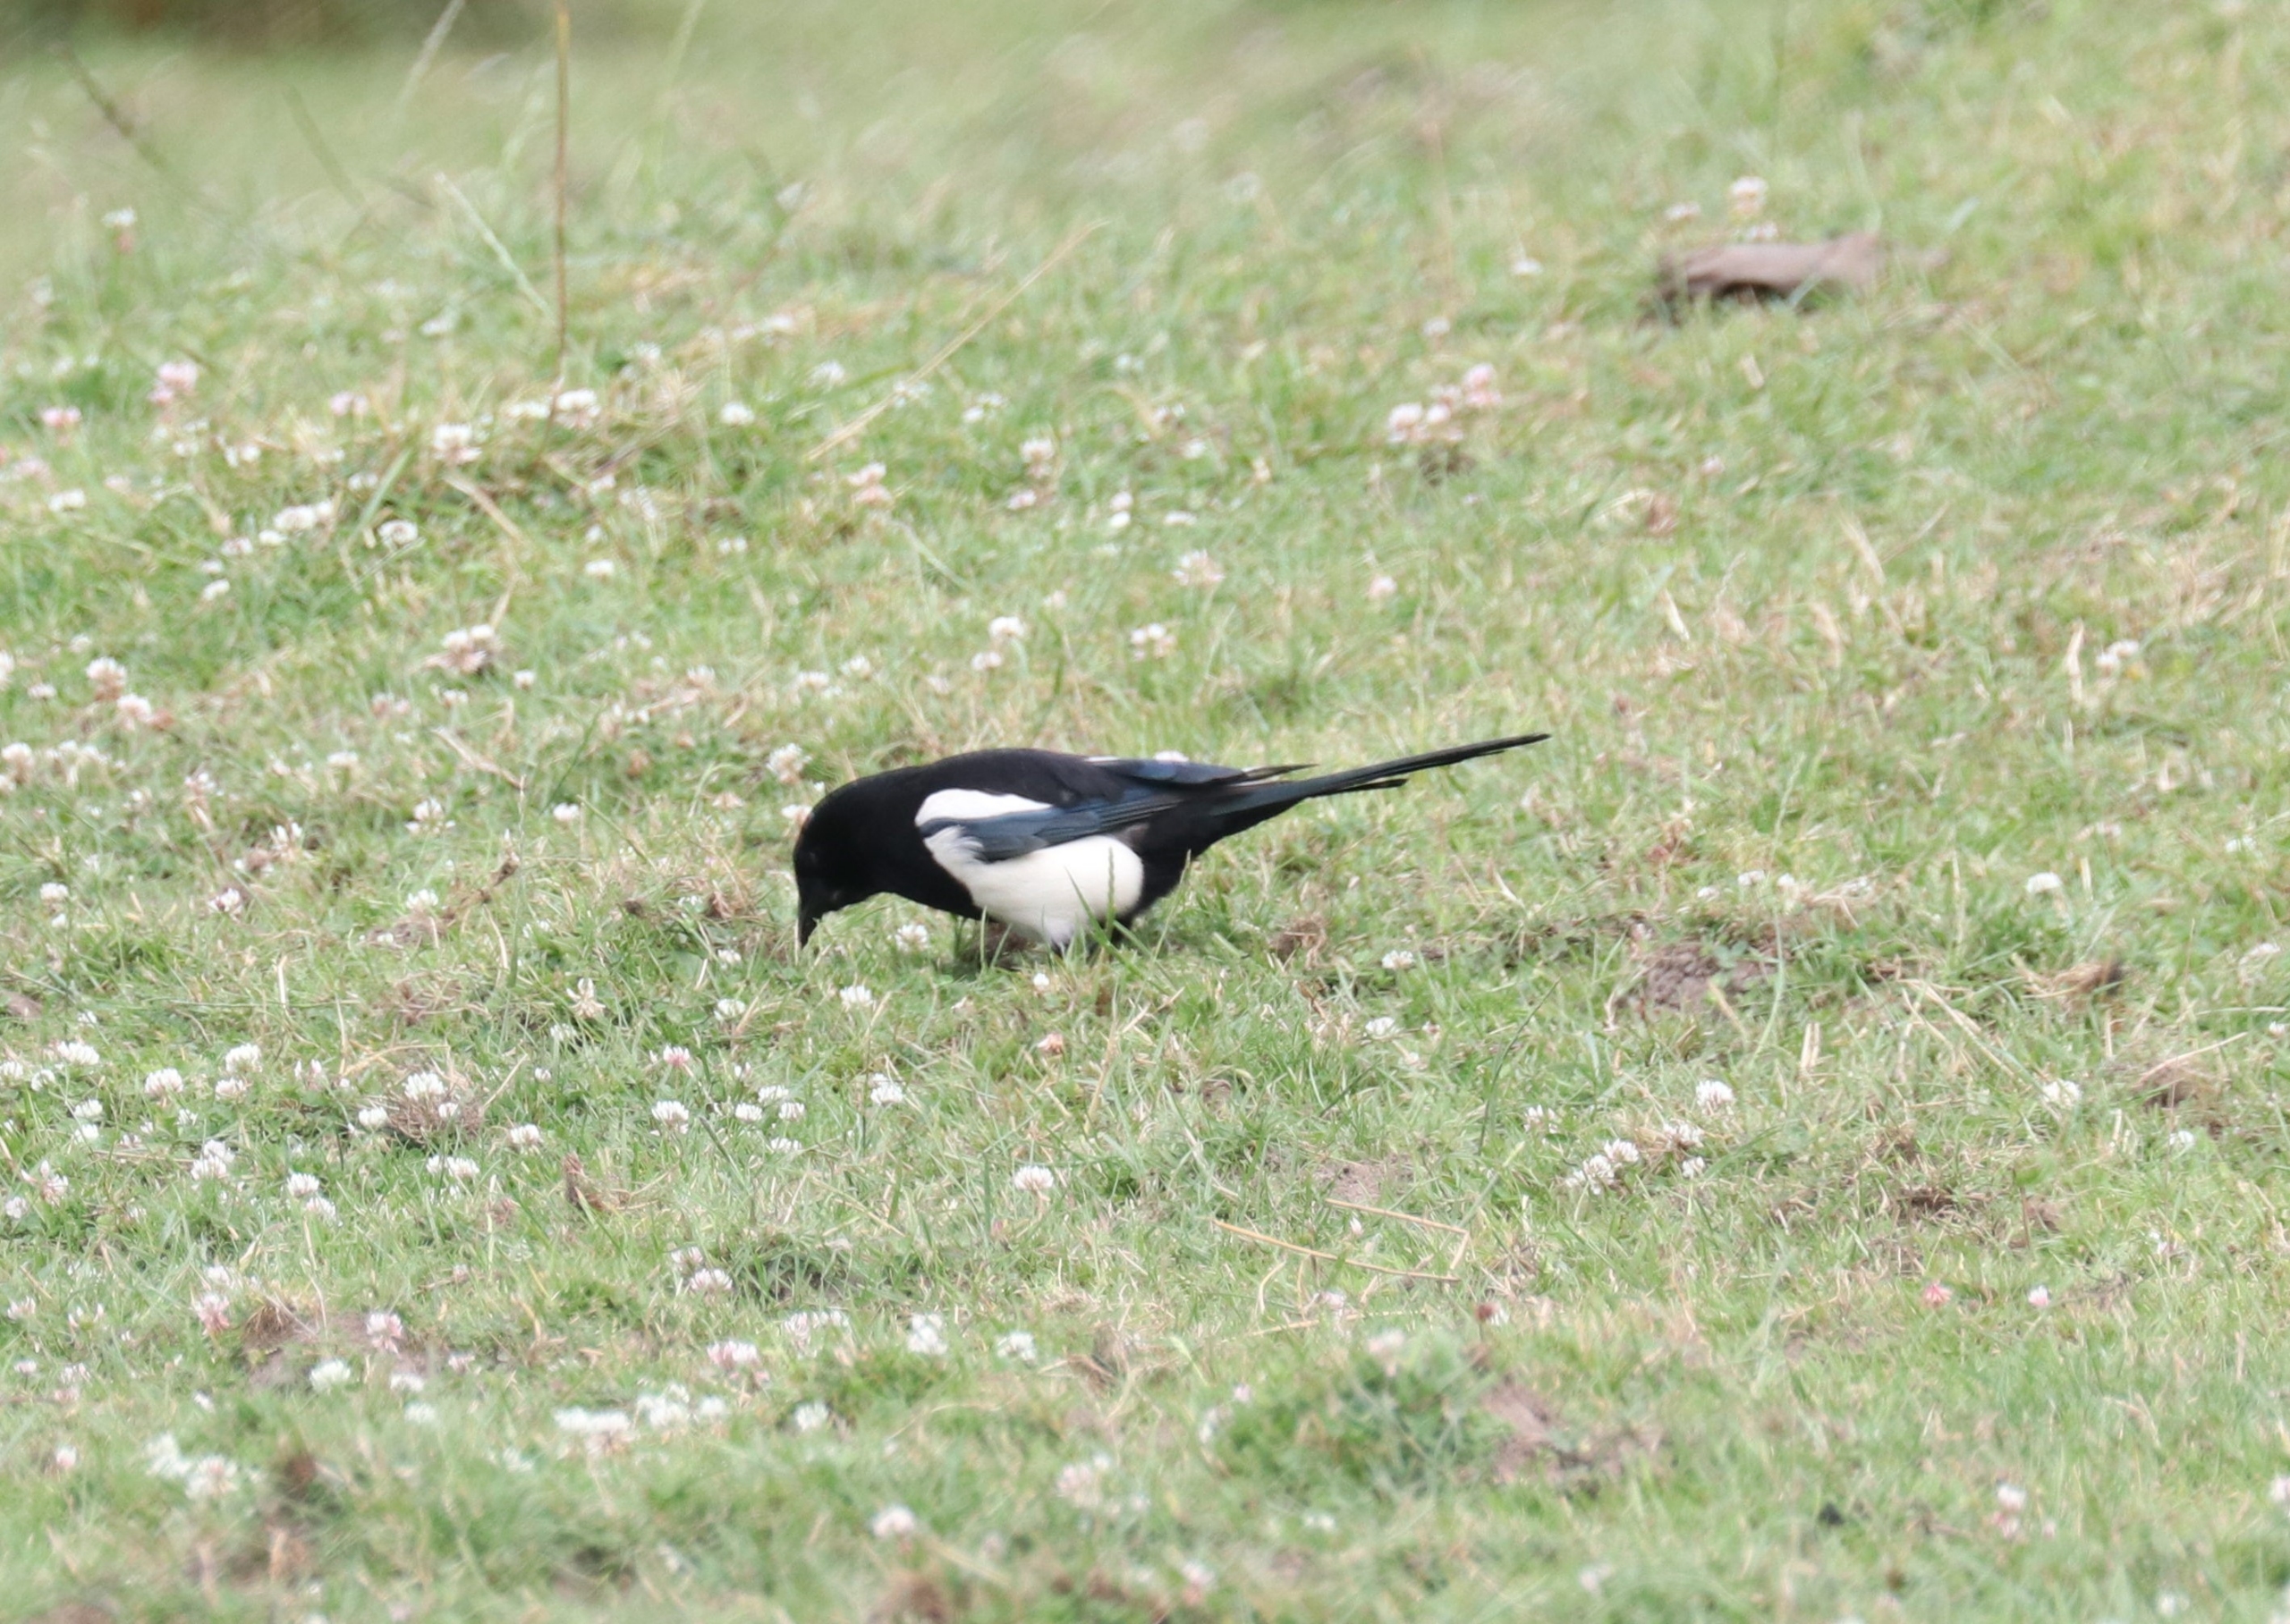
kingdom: Animalia
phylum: Chordata
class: Aves
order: Passeriformes
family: Corvidae
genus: Pica
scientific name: Pica pica
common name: Husskade
